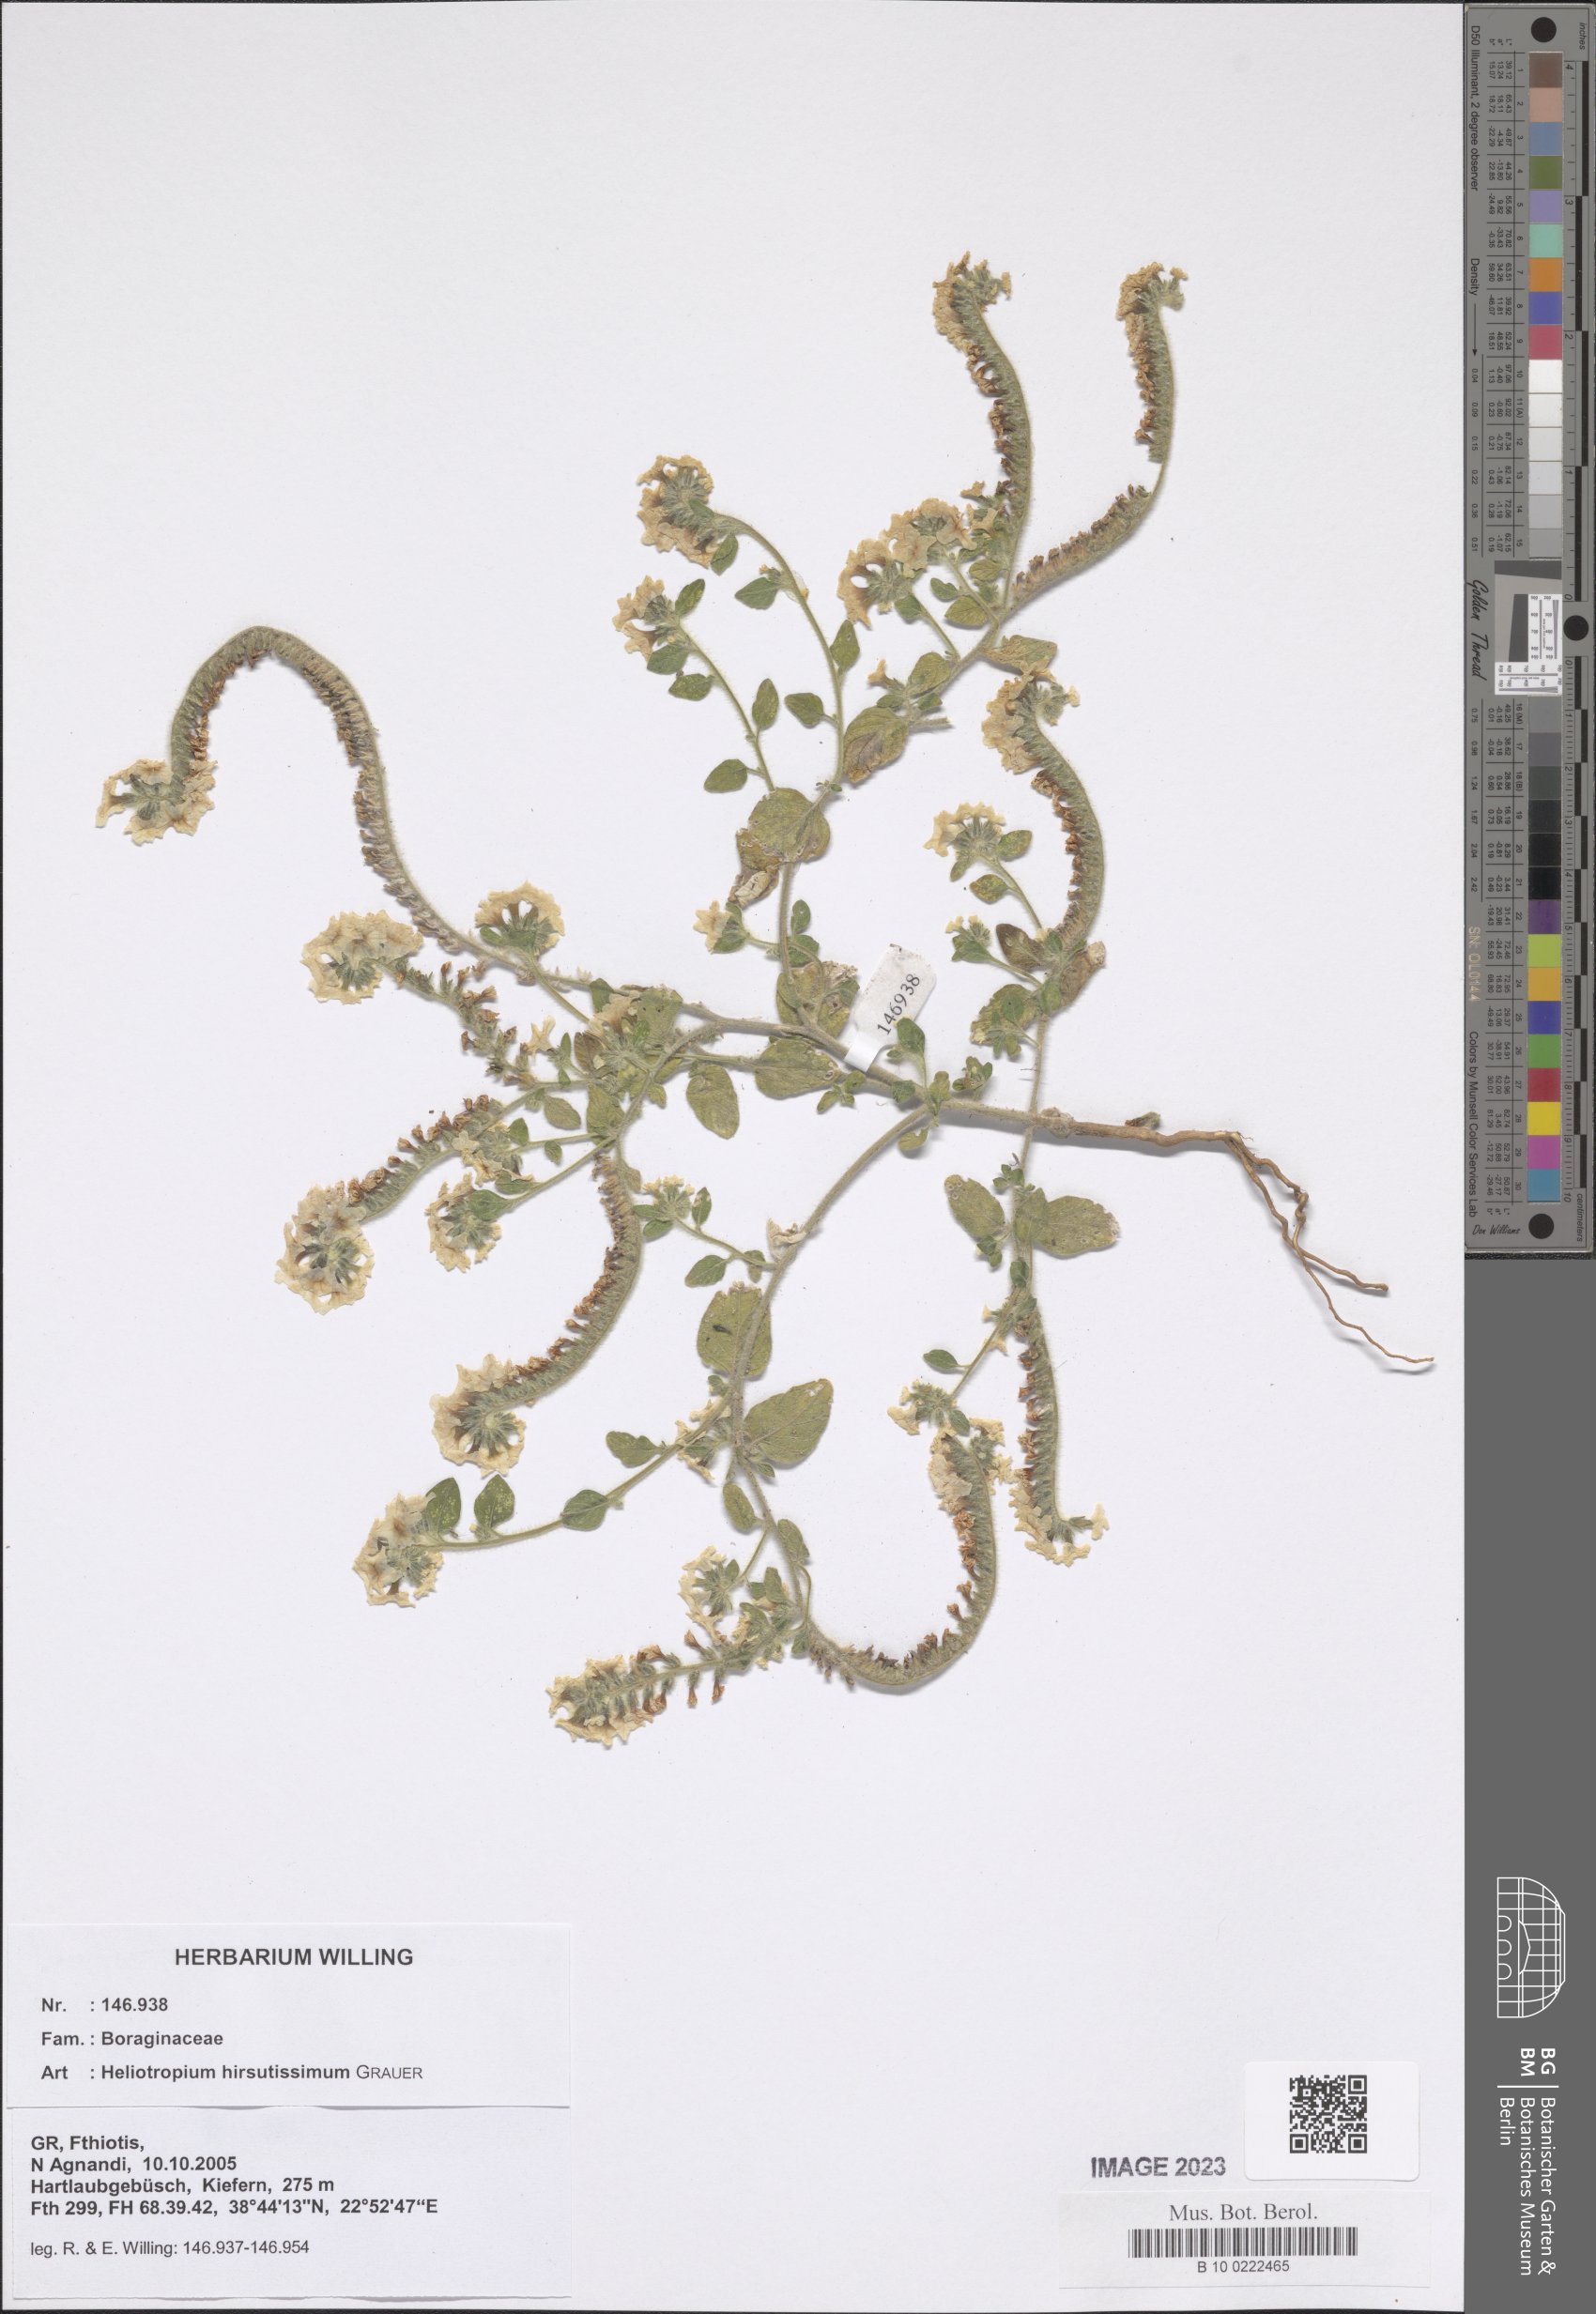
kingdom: Plantae
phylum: Tracheophyta
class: Magnoliopsida
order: Boraginales
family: Heliotropiaceae
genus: Heliotropium
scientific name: Heliotropium hirsutissimum
